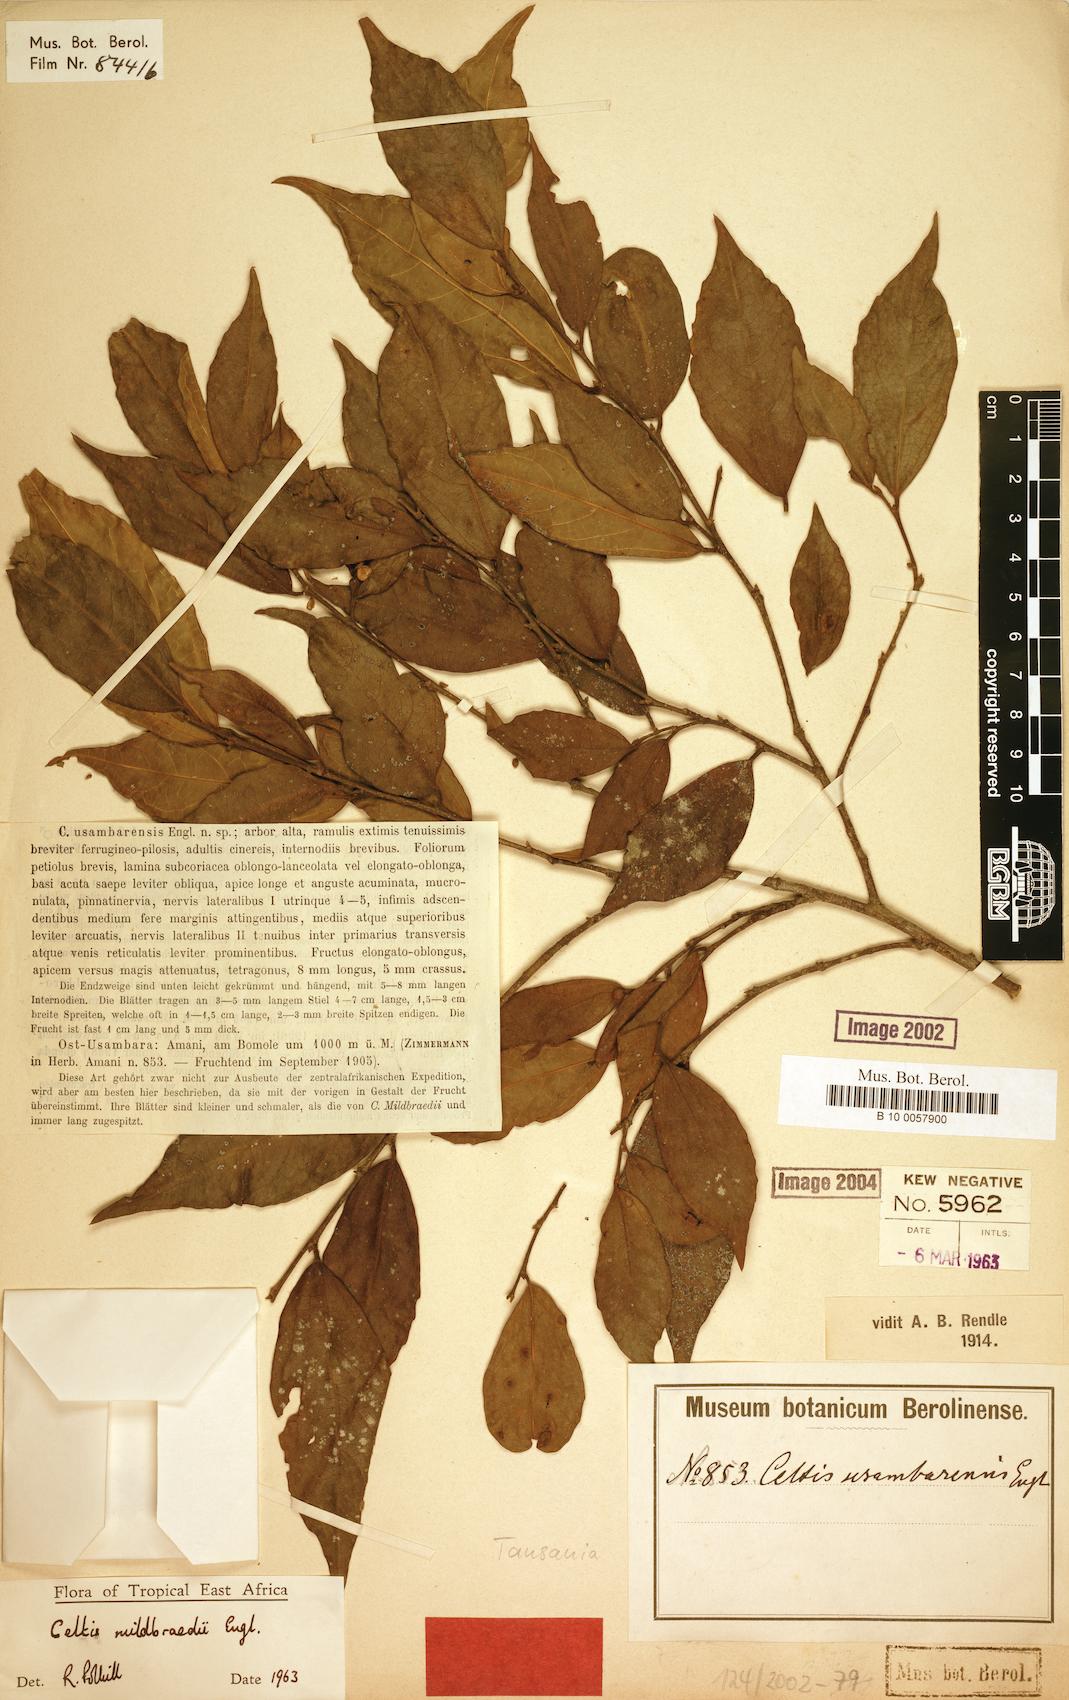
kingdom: Plantae
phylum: Tracheophyta
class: Magnoliopsida
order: Rosales
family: Cannabaceae
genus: Celtis
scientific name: Celtis mildbraedii
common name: Red-fruited stinkwood
